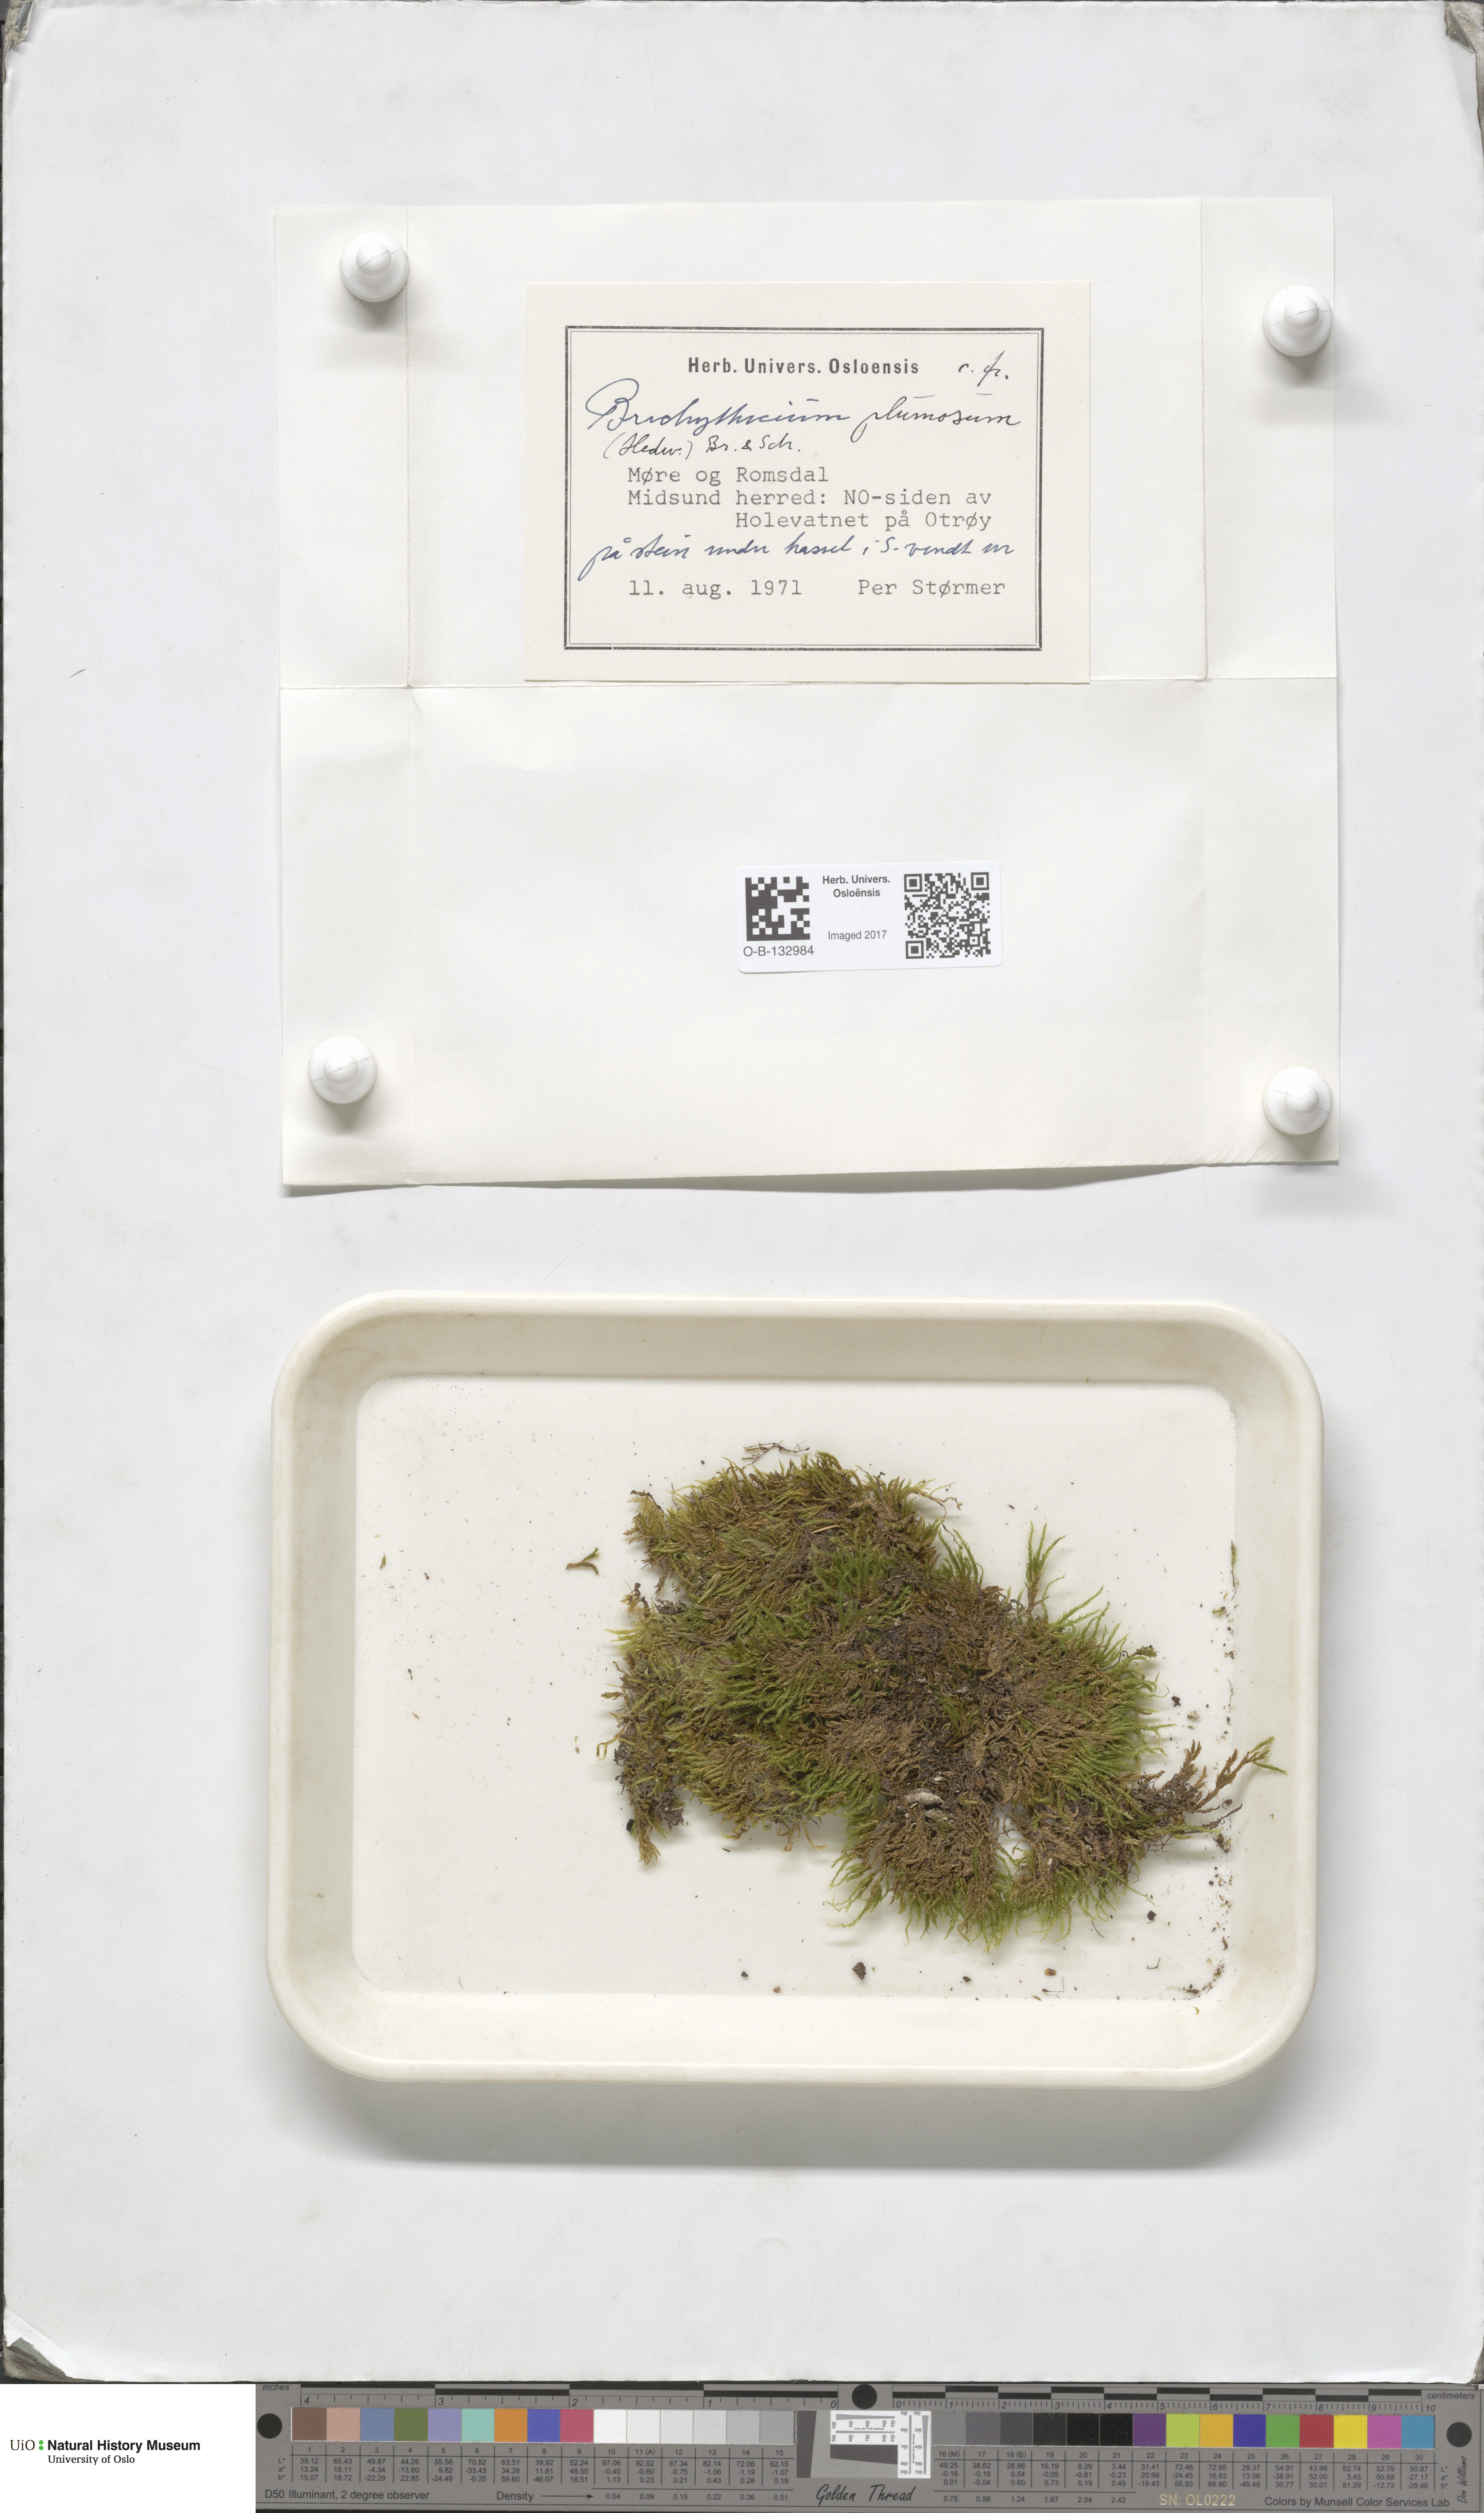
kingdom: Plantae
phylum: Bryophyta
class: Bryopsida
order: Hypnales
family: Brachytheciaceae
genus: Sciuro-hypnum
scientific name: Sciuro-hypnum plumosum
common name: Rusty feather-moss
